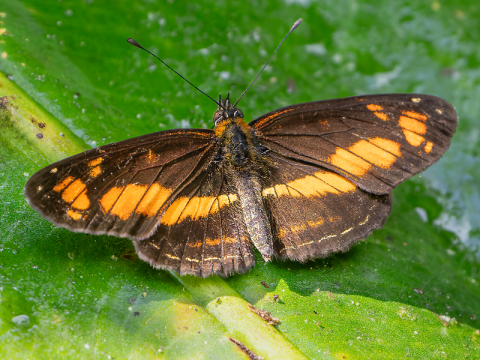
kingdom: Animalia
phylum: Arthropoda
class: Insecta
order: Lepidoptera
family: Nymphalidae
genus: Eresia
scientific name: Eresia polina
